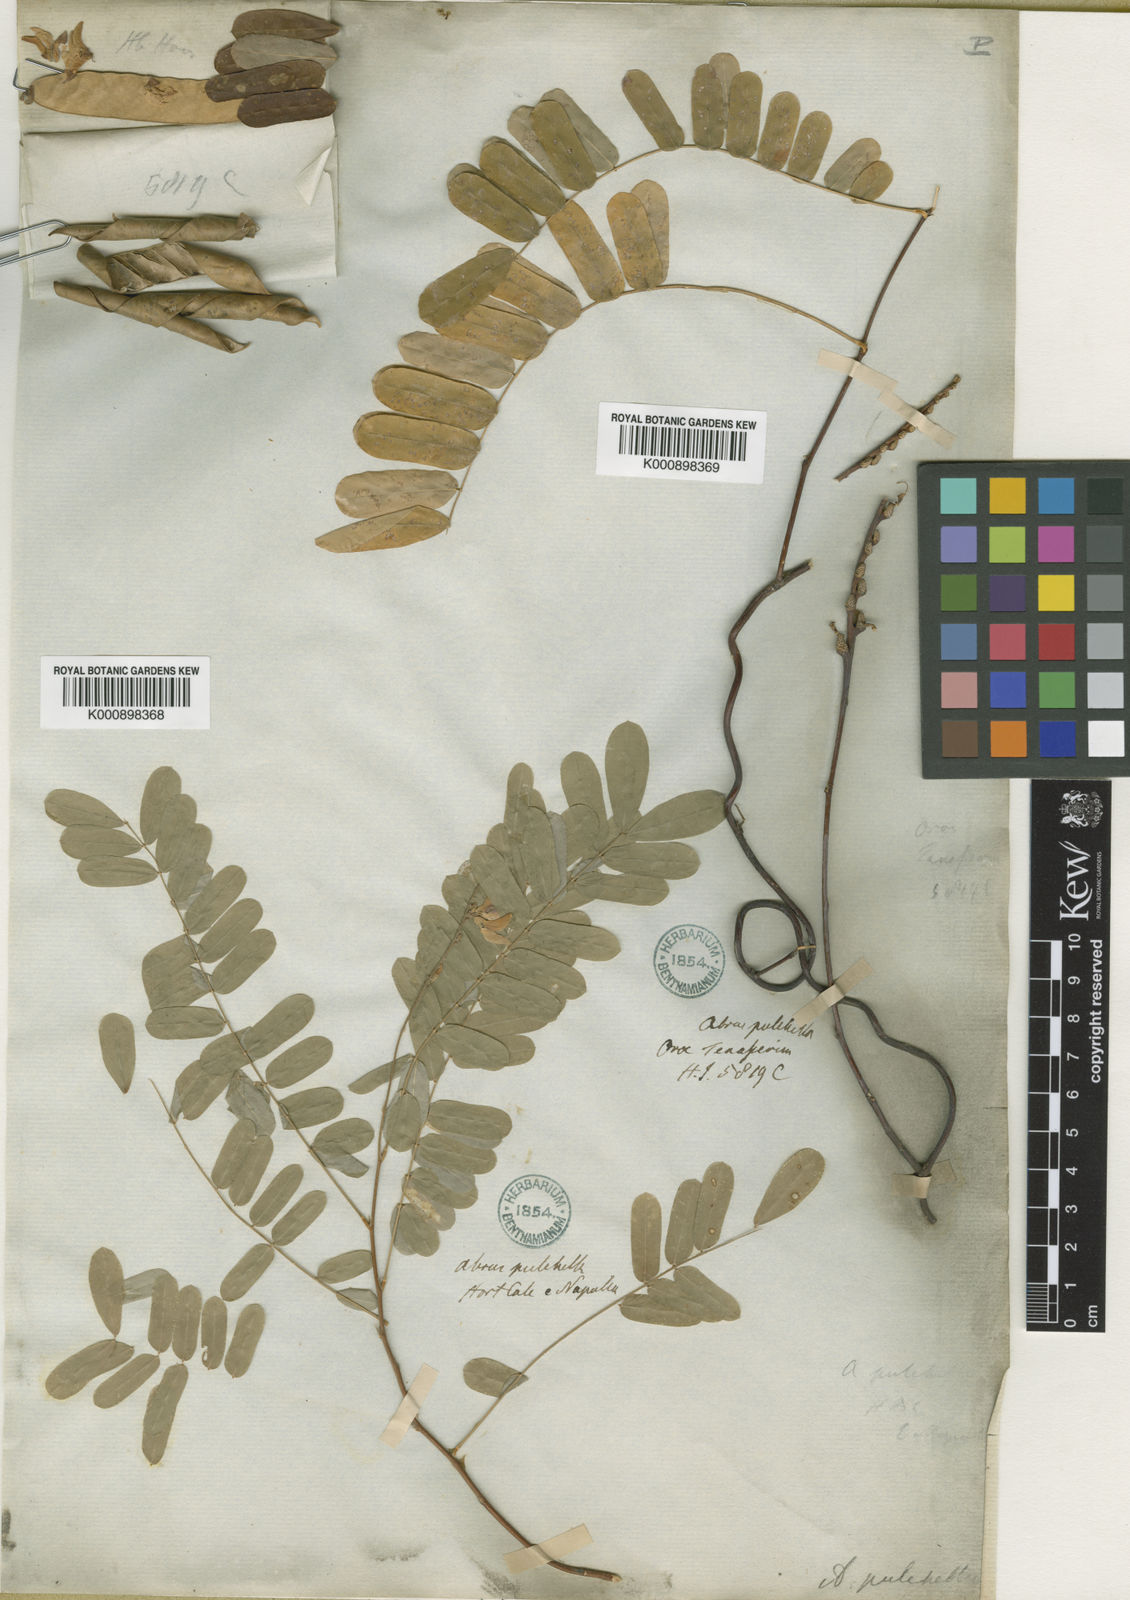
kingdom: Plantae
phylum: Tracheophyta
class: Magnoliopsida
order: Fabales
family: Fabaceae
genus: Abrus
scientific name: Abrus
